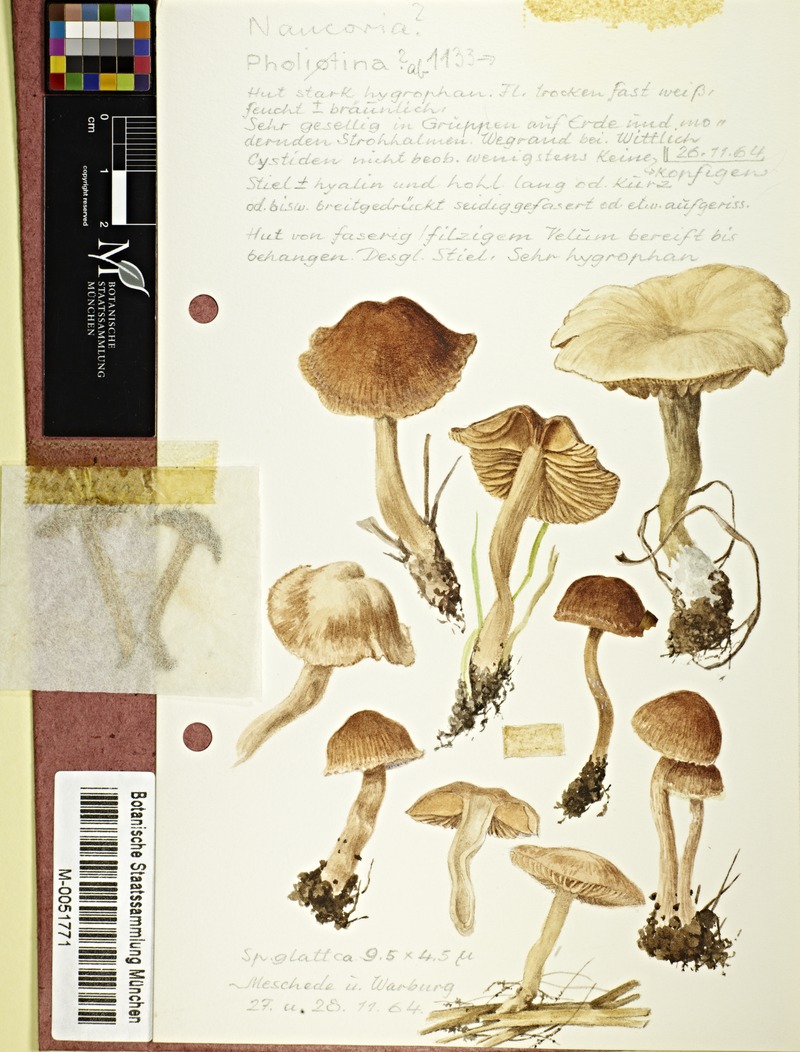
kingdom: Fungi
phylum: Basidiomycota
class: Agaricomycetes
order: Agaricales
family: Tubariaceae
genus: Tubaria
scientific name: Tubaria
